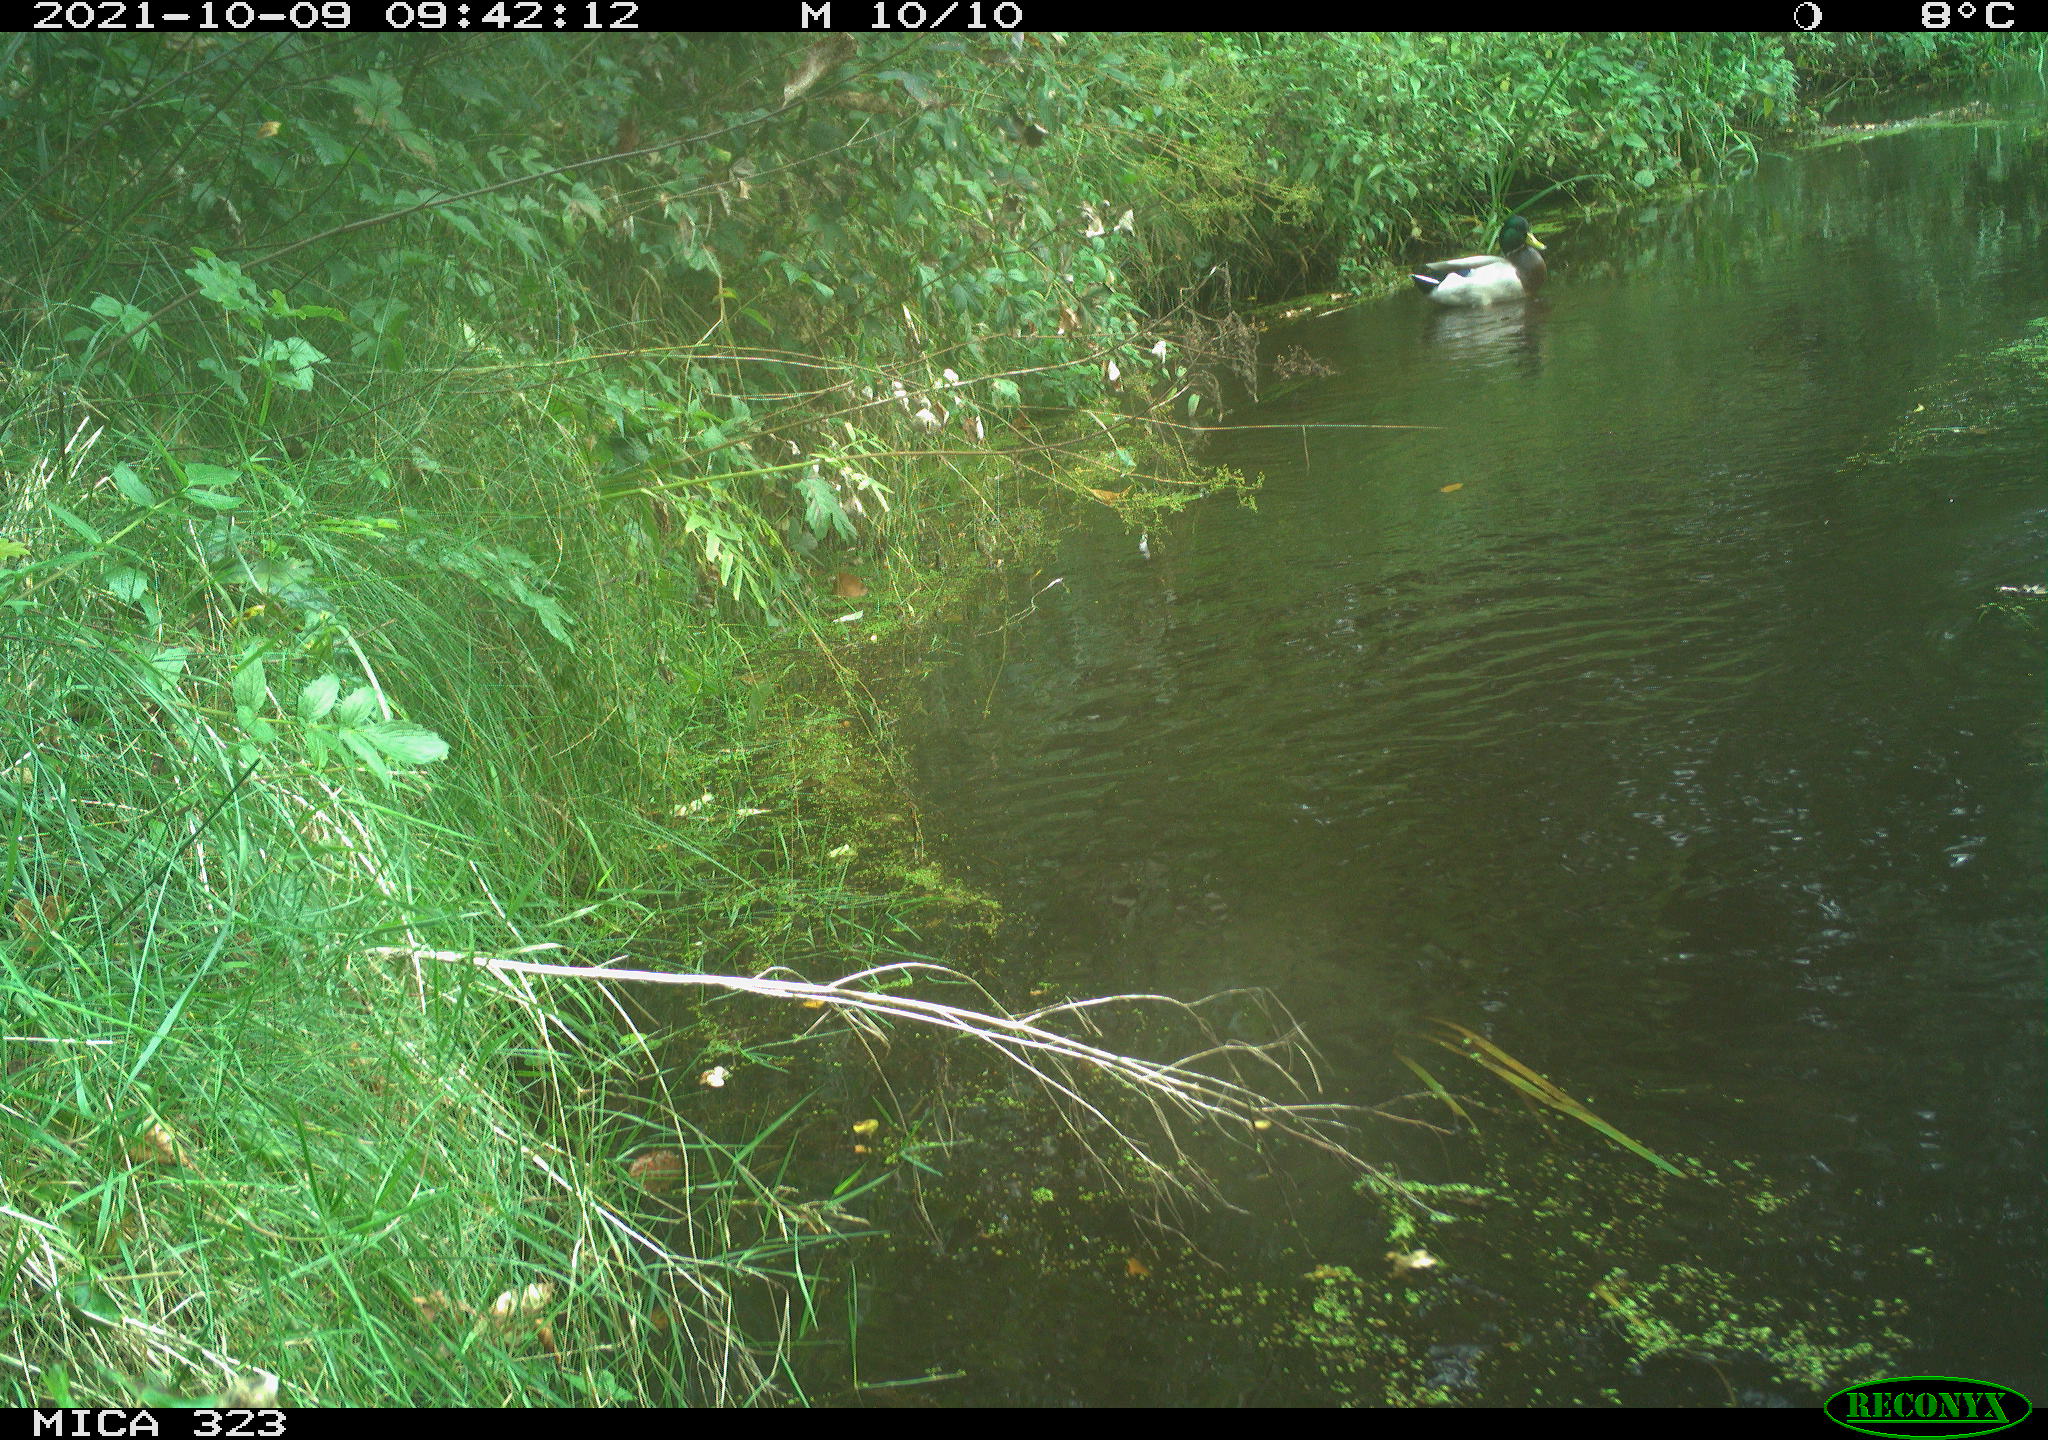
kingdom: Animalia
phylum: Chordata
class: Aves
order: Anseriformes
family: Anatidae
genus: Anas
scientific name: Anas platyrhynchos
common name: Mallard
